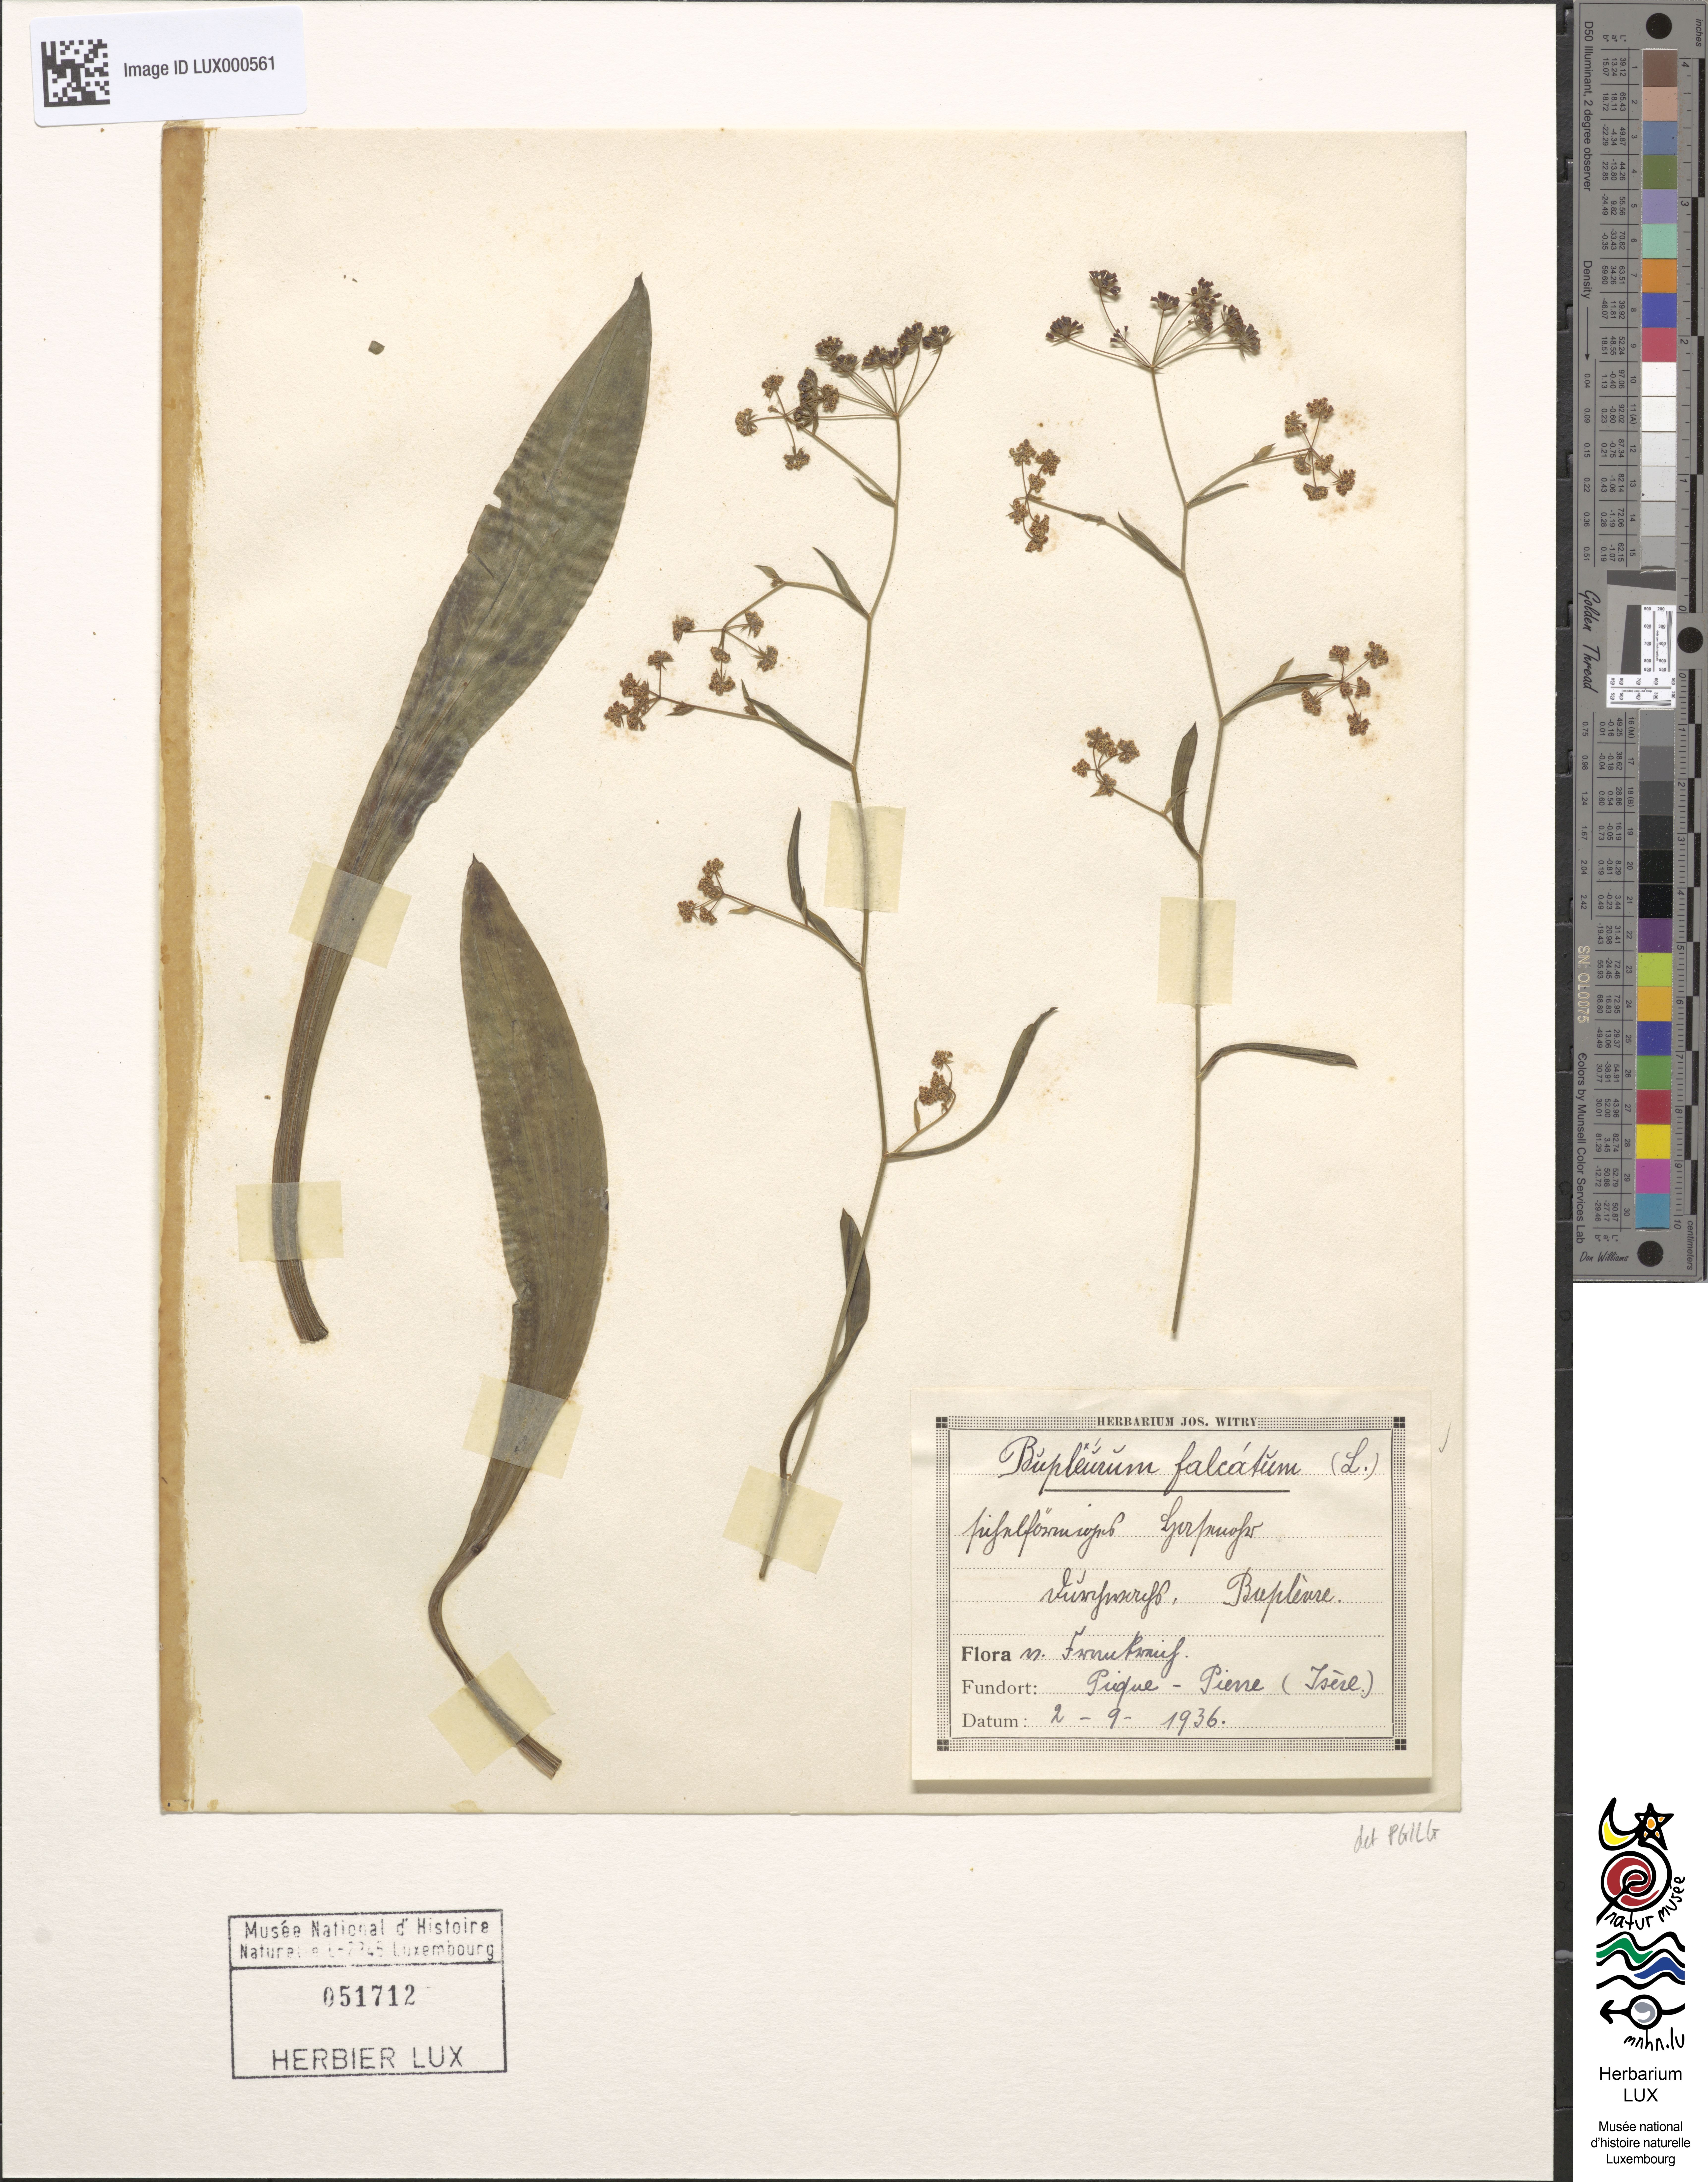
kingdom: Plantae
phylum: Tracheophyta
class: Magnoliopsida
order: Apiales
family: Apiaceae
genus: Bupleurum
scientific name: Bupleurum falcatum
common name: Sickle-leaved hare's-ear
